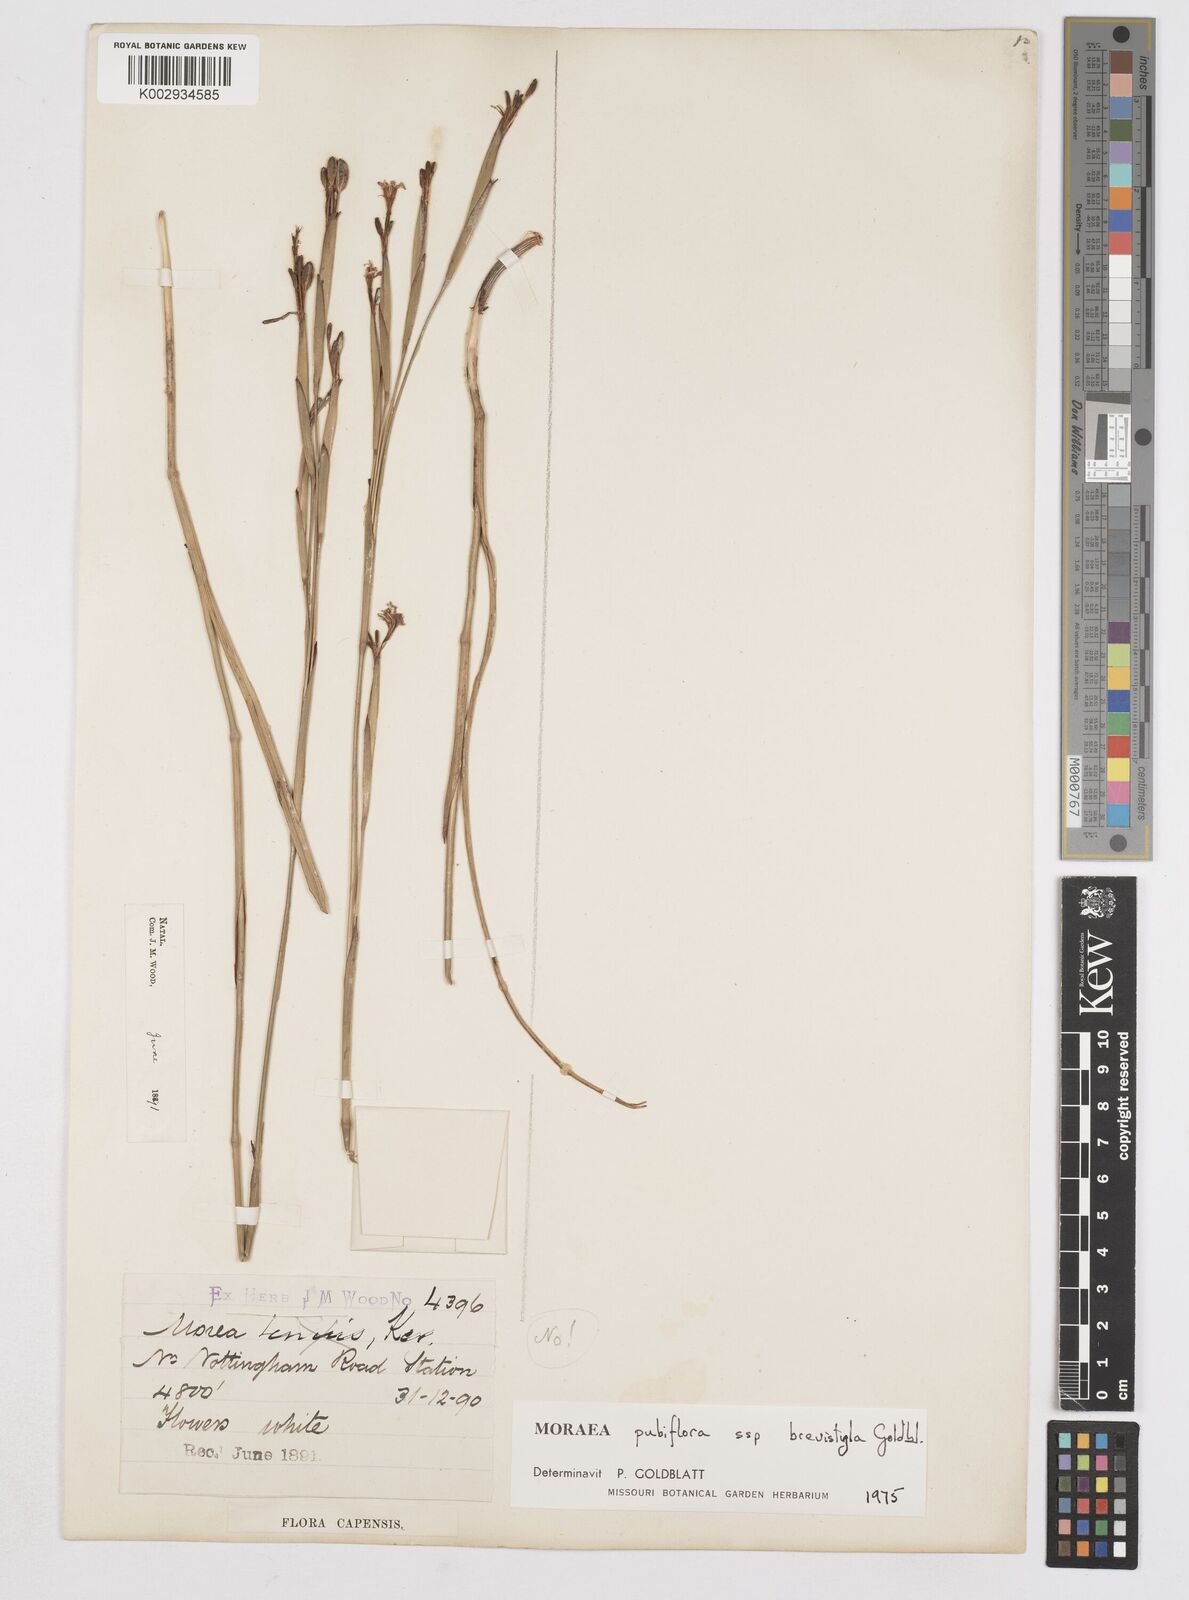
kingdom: Plantae
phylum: Tracheophyta
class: Liliopsida
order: Asparagales
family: Iridaceae
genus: Moraea
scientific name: Moraea brevistyla
